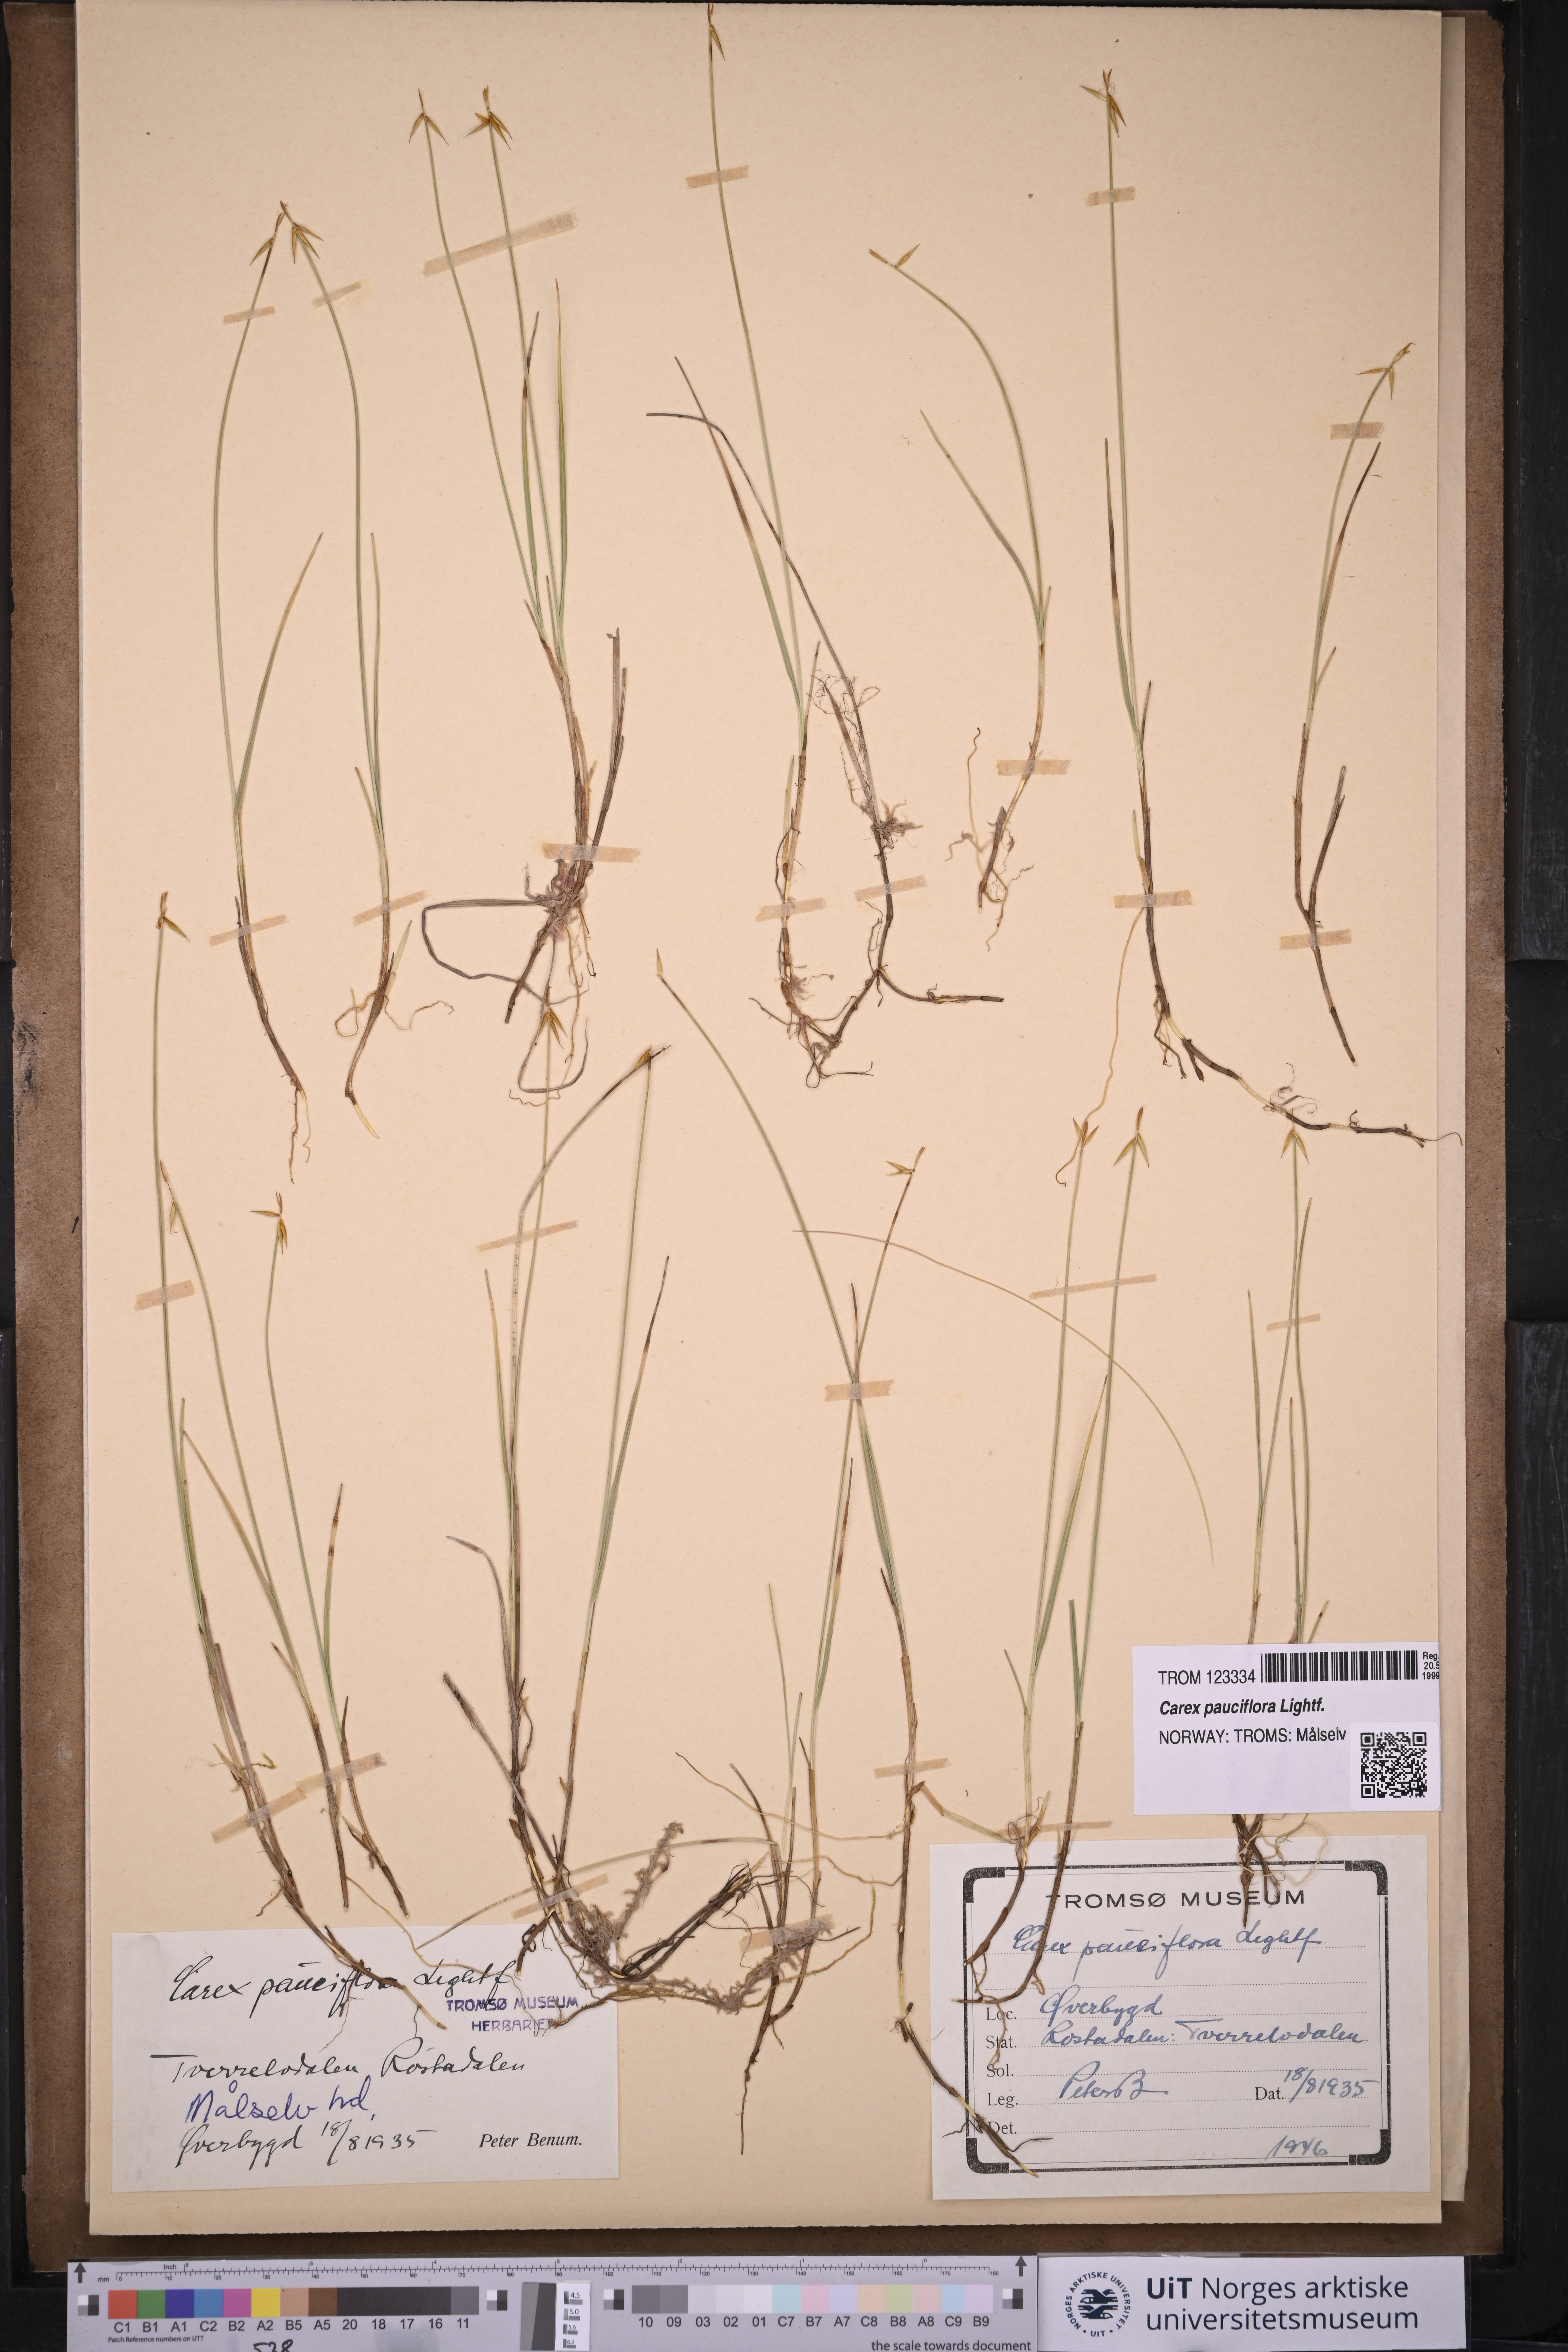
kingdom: Plantae
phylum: Tracheophyta
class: Liliopsida
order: Poales
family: Cyperaceae
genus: Carex
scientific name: Carex pauciflora
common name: Few-flowered sedge
